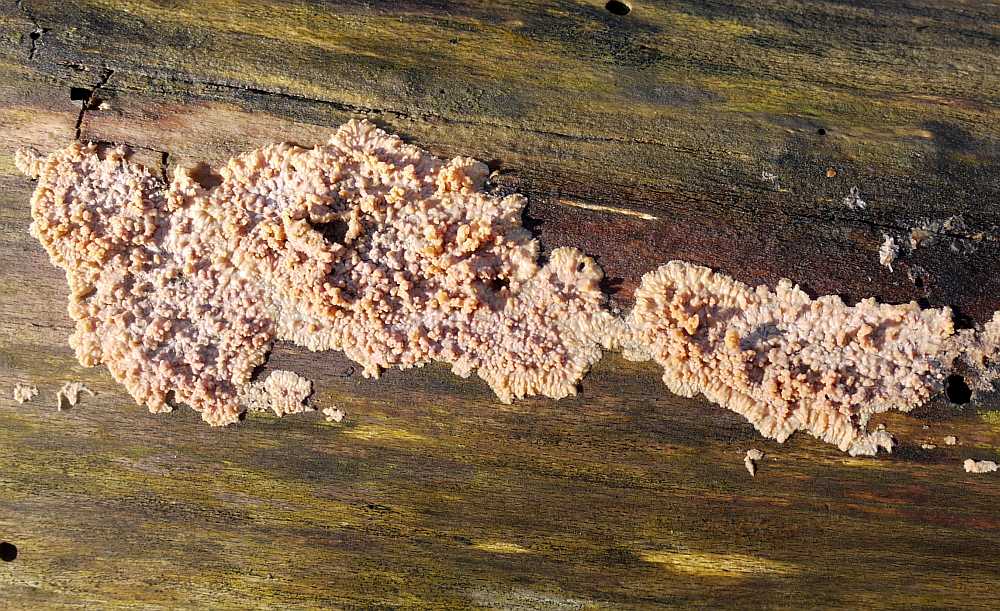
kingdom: Fungi
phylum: Basidiomycota
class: Agaricomycetes
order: Polyporales
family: Meruliaceae
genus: Phlebia
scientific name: Phlebia radiata
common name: stråle-åresvamp
